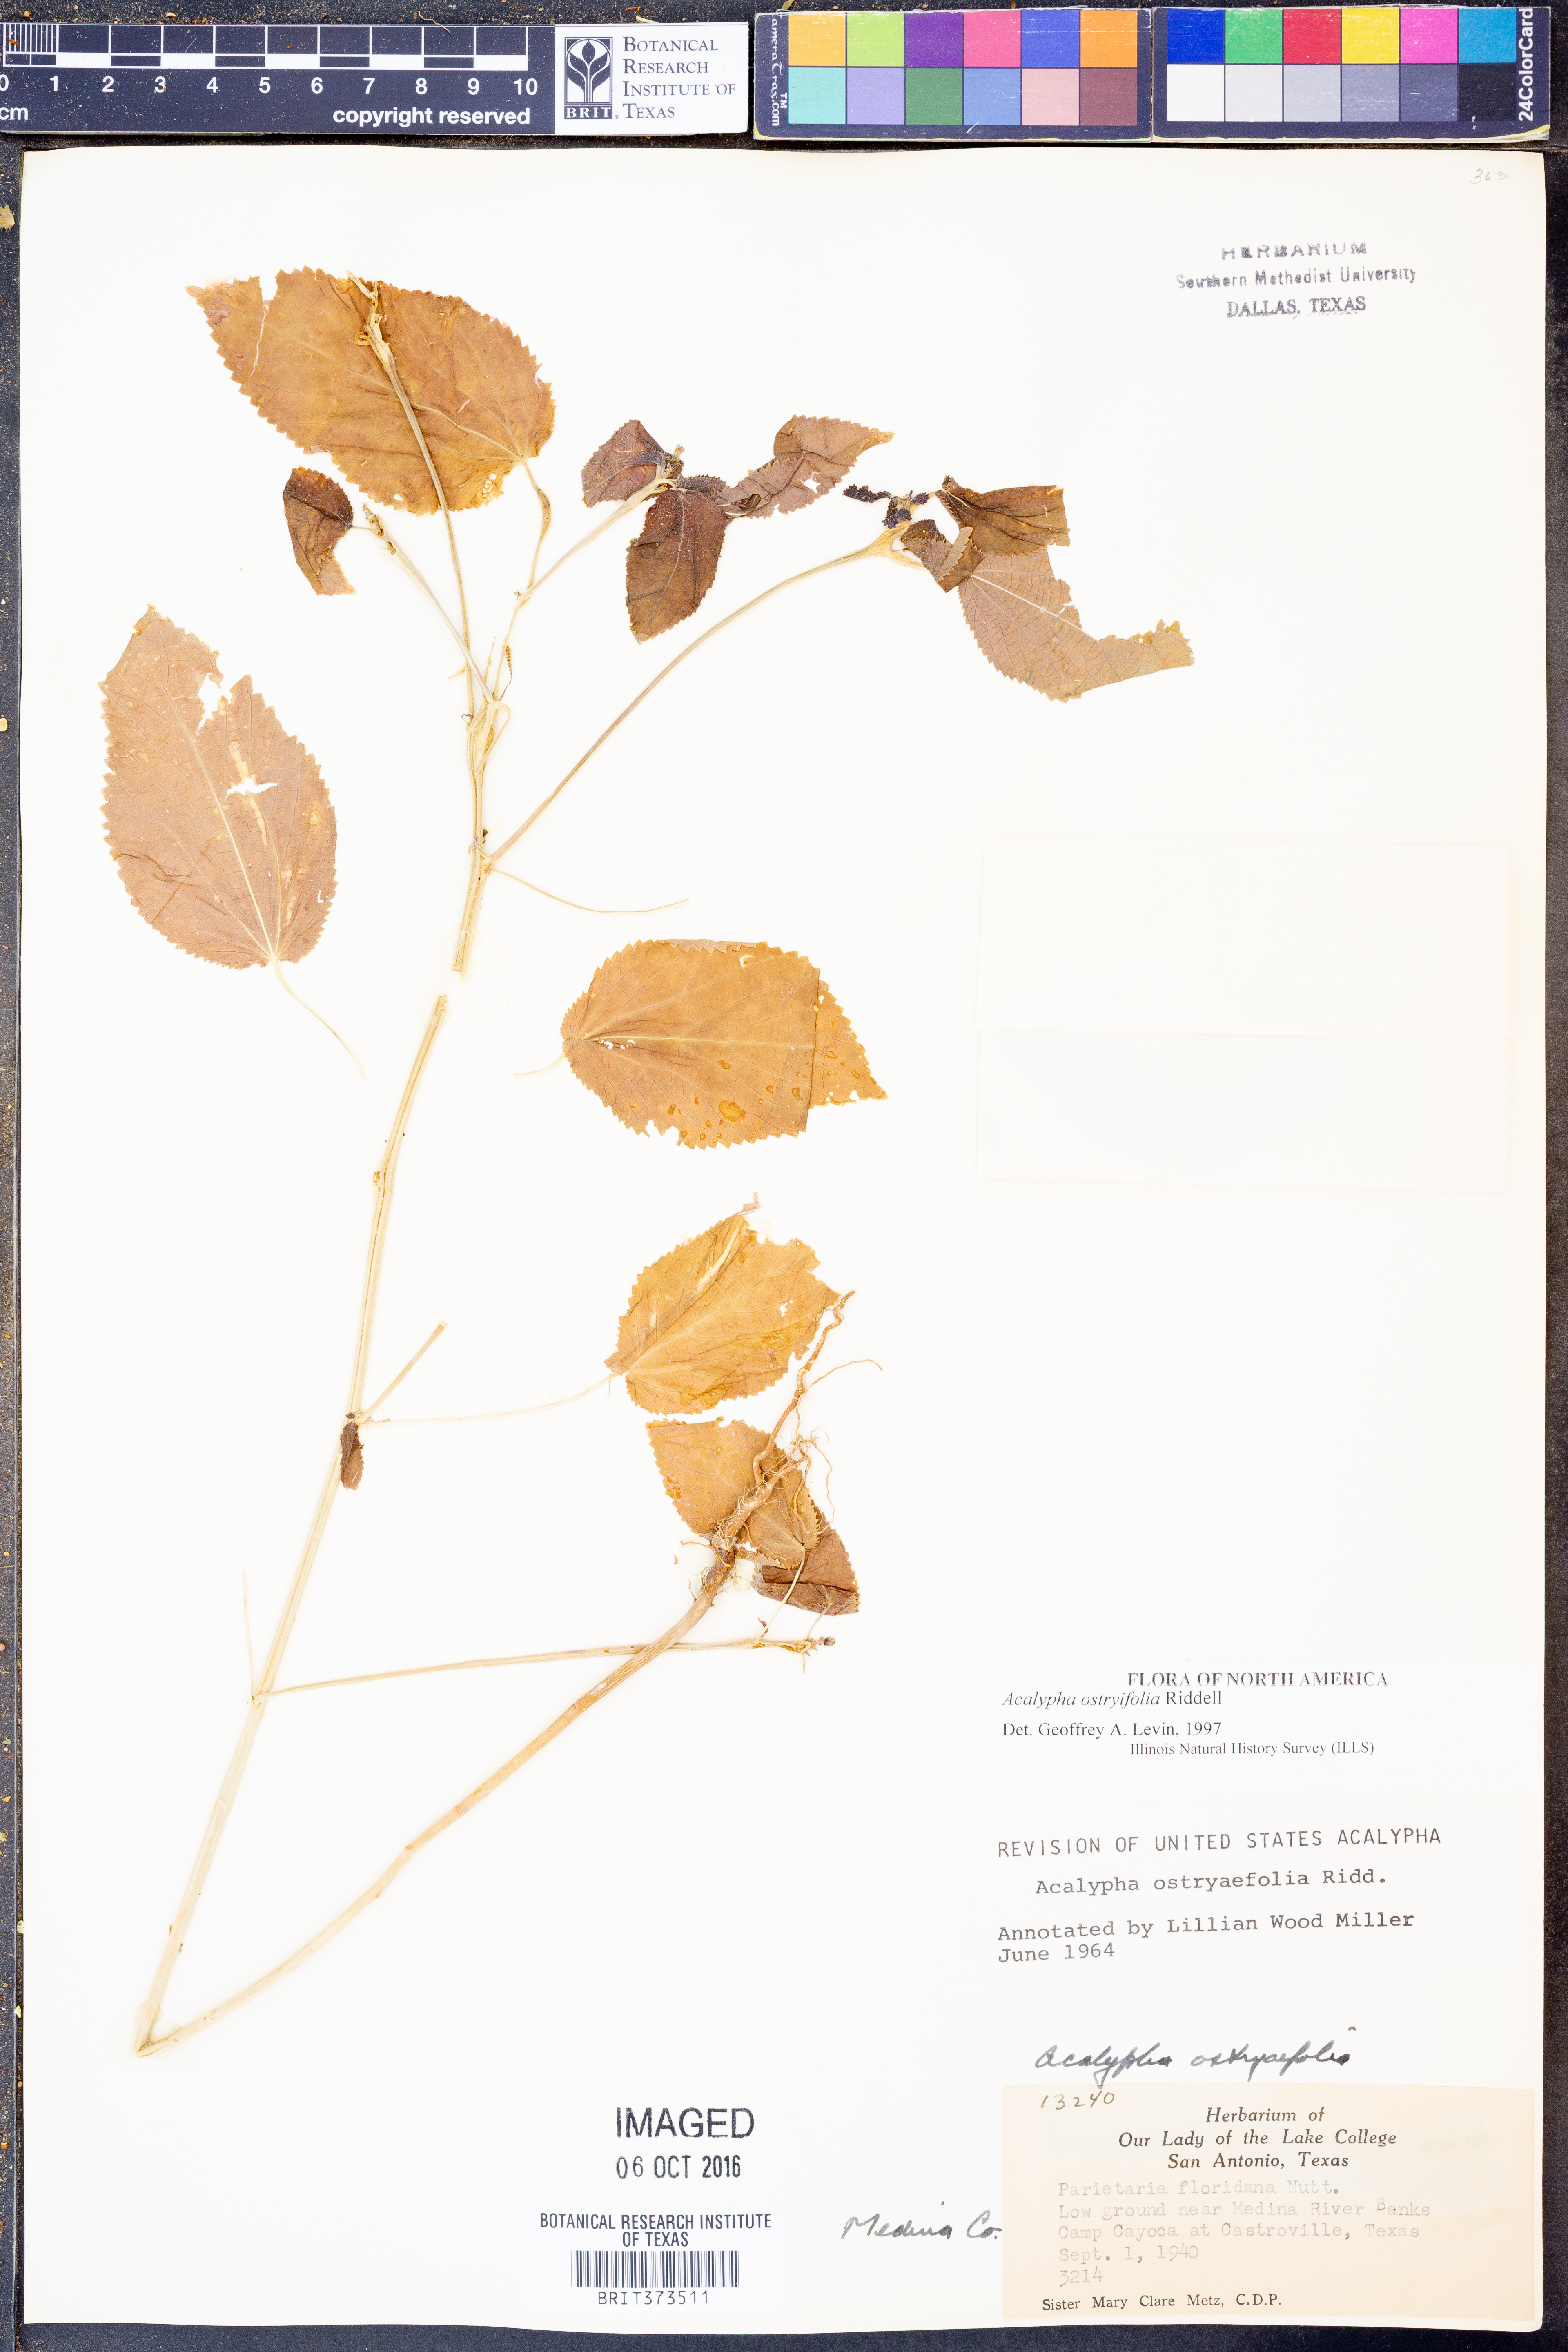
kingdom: Plantae
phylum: Tracheophyta
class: Magnoliopsida
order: Malpighiales
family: Euphorbiaceae
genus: Acalypha
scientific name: Acalypha persimilis
